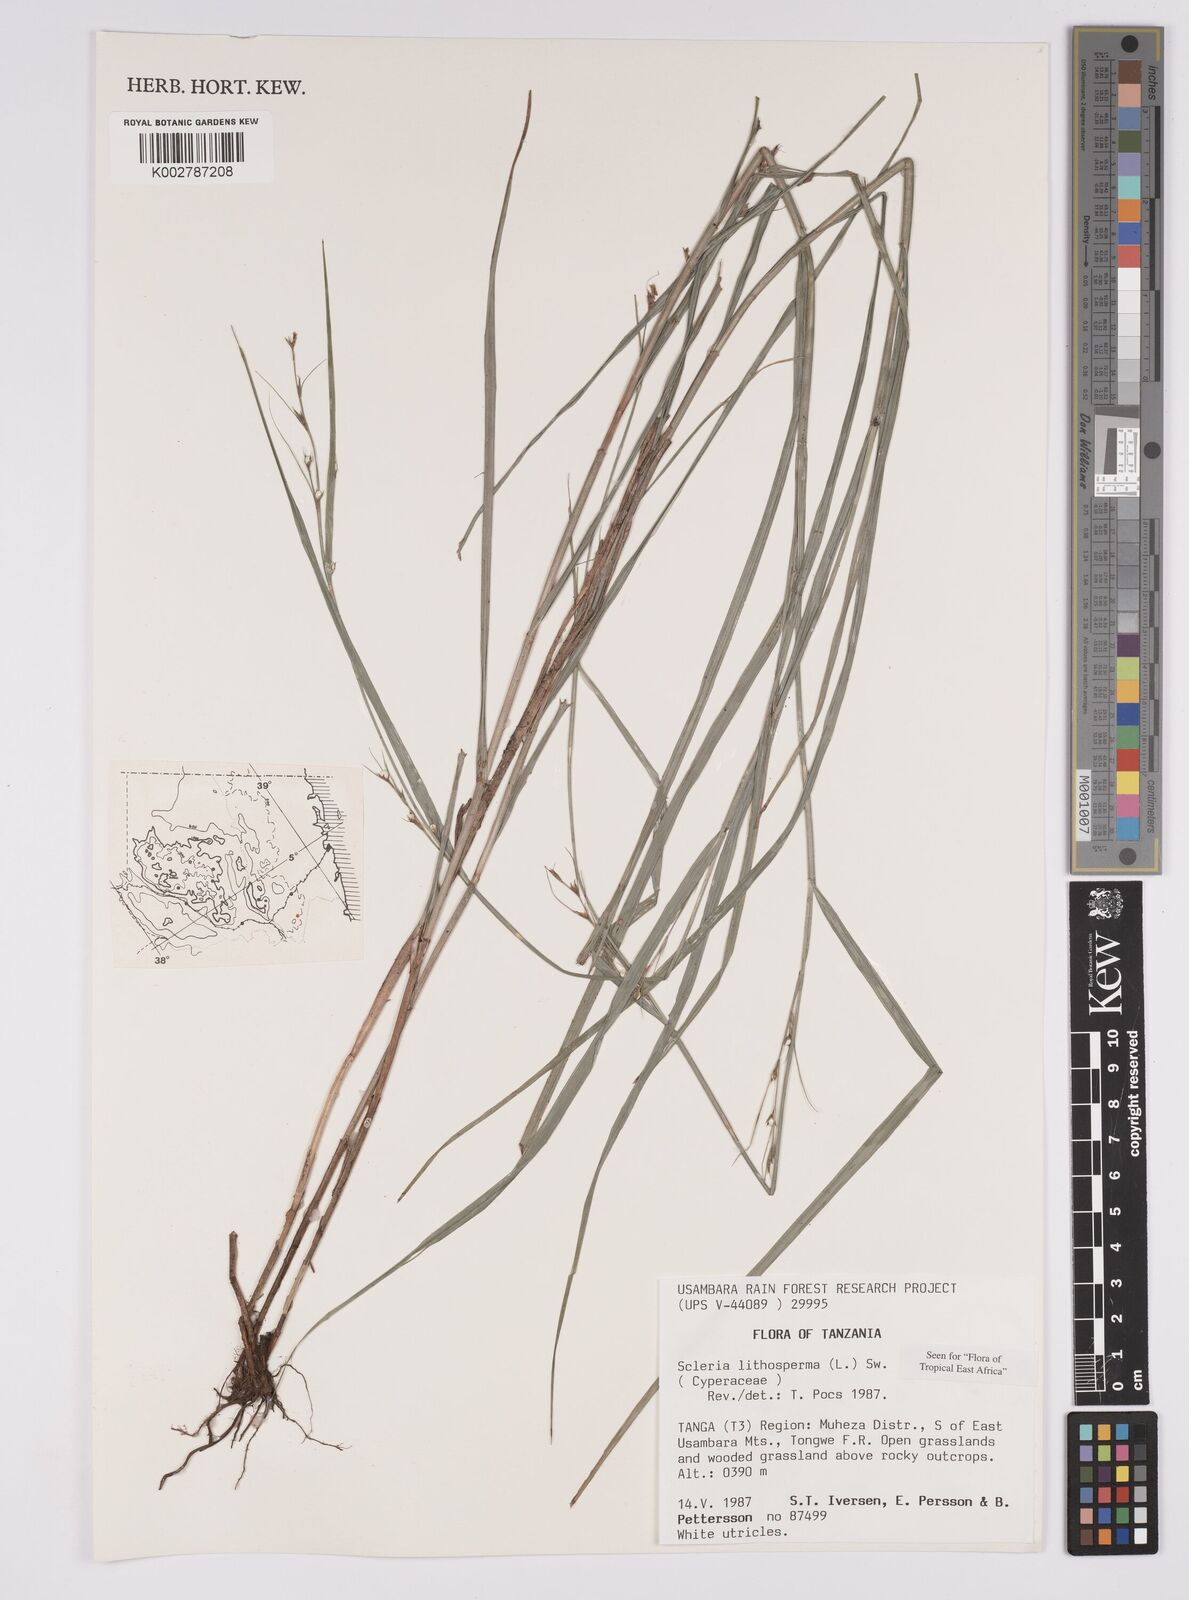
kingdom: Plantae
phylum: Tracheophyta
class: Liliopsida
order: Poales
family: Cyperaceae
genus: Scleria
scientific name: Scleria lithosperma
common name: Florida keys nut-rush
